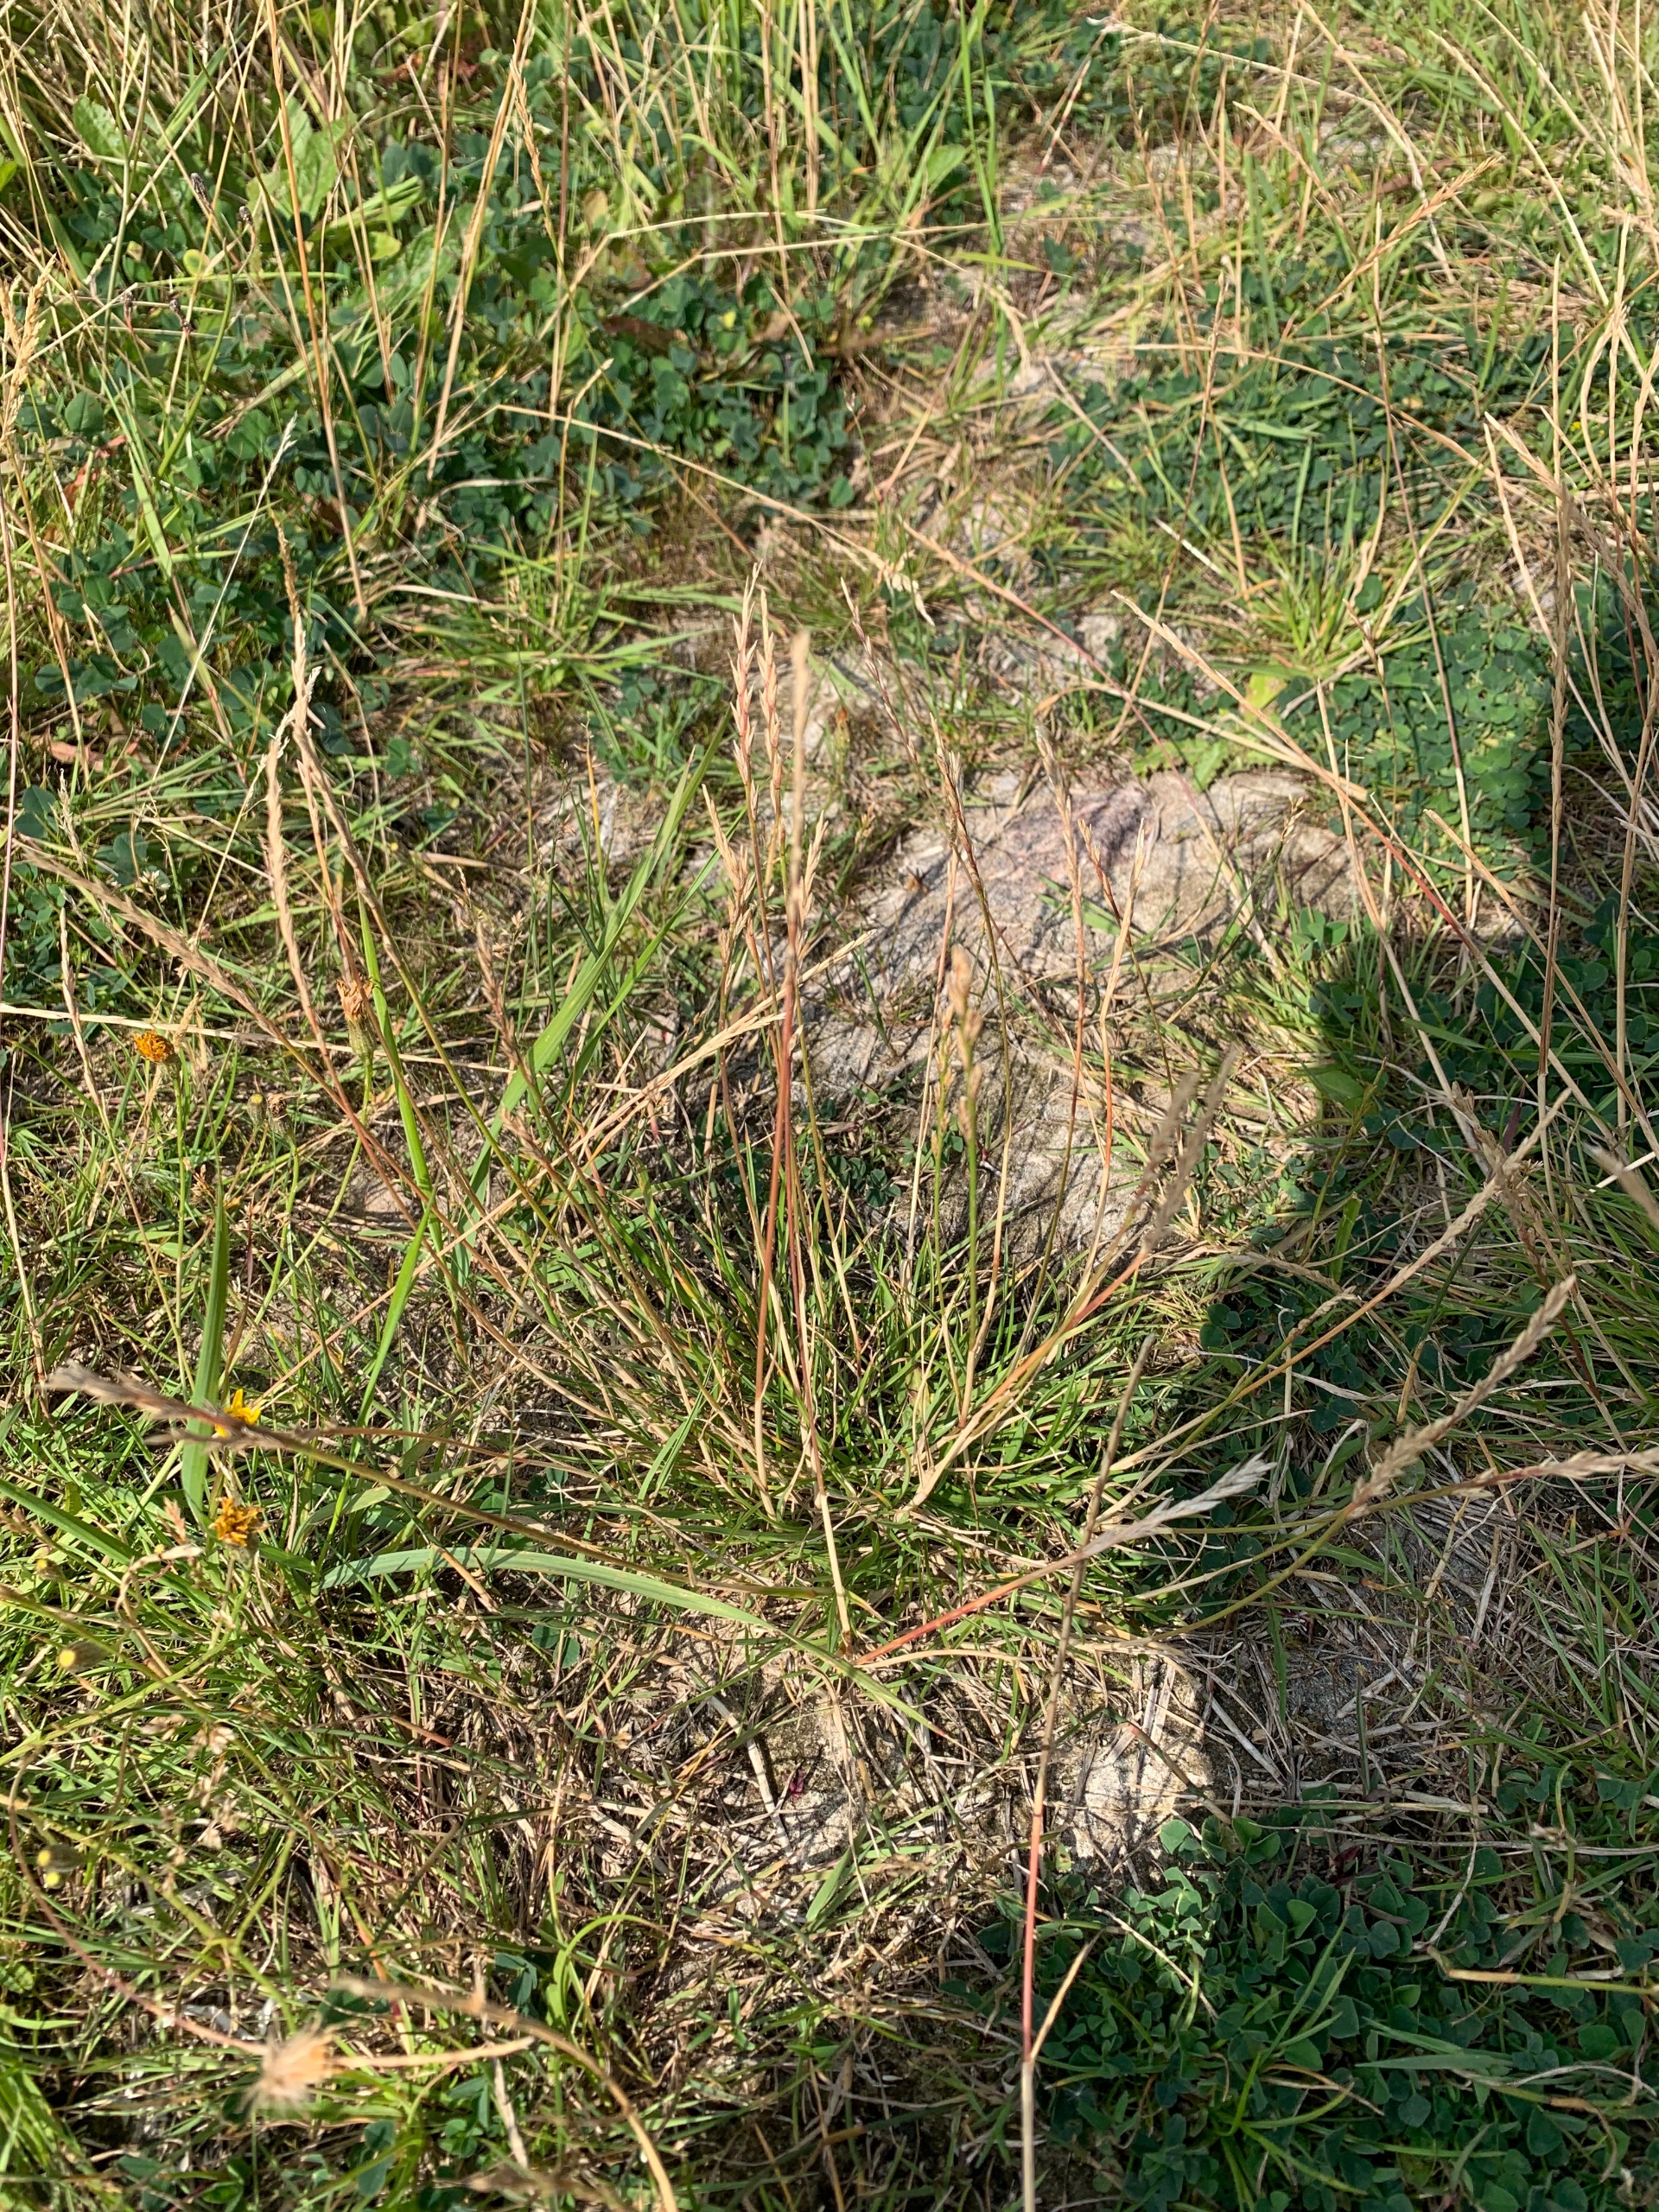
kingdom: Plantae
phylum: Tracheophyta
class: Liliopsida
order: Poales
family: Poaceae
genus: Lolium
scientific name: Lolium perenne
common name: Almindelig rajgræs
